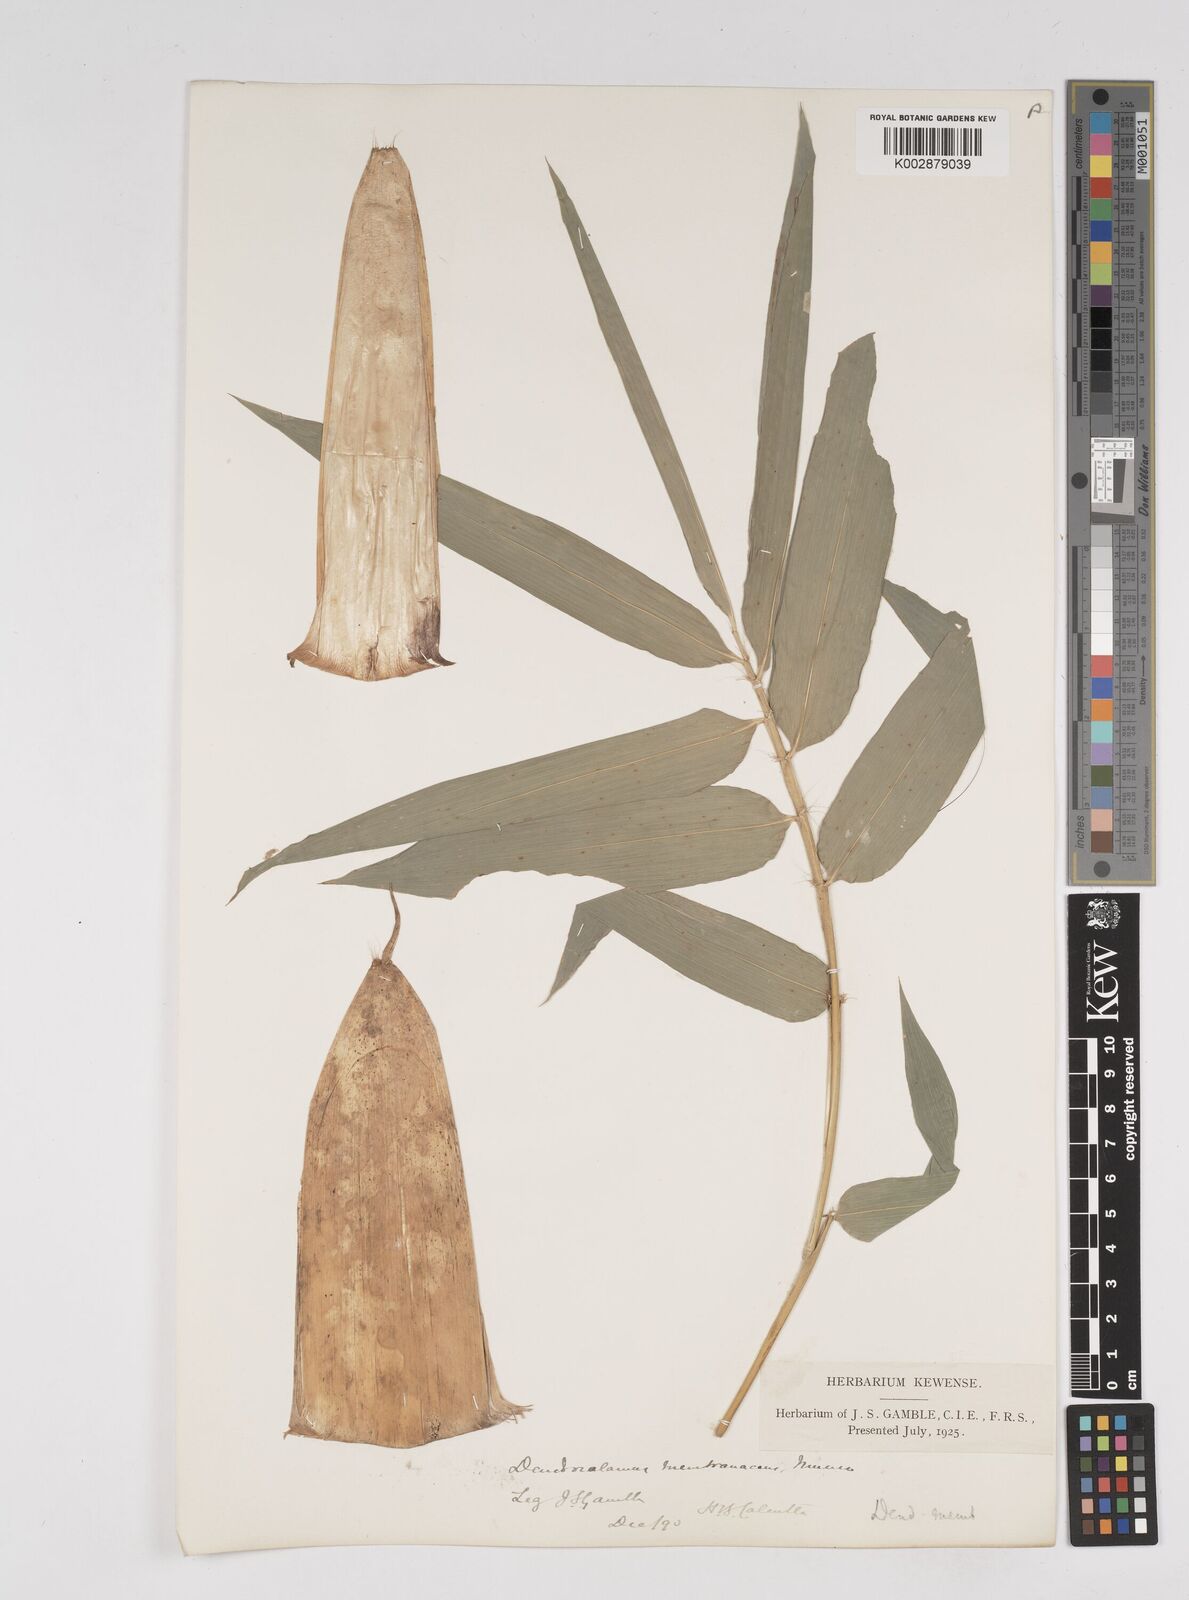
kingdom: Plantae
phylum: Tracheophyta
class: Liliopsida
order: Poales
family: Poaceae
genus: Dendrocalamus
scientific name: Dendrocalamus membranaceus
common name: White bamboo
